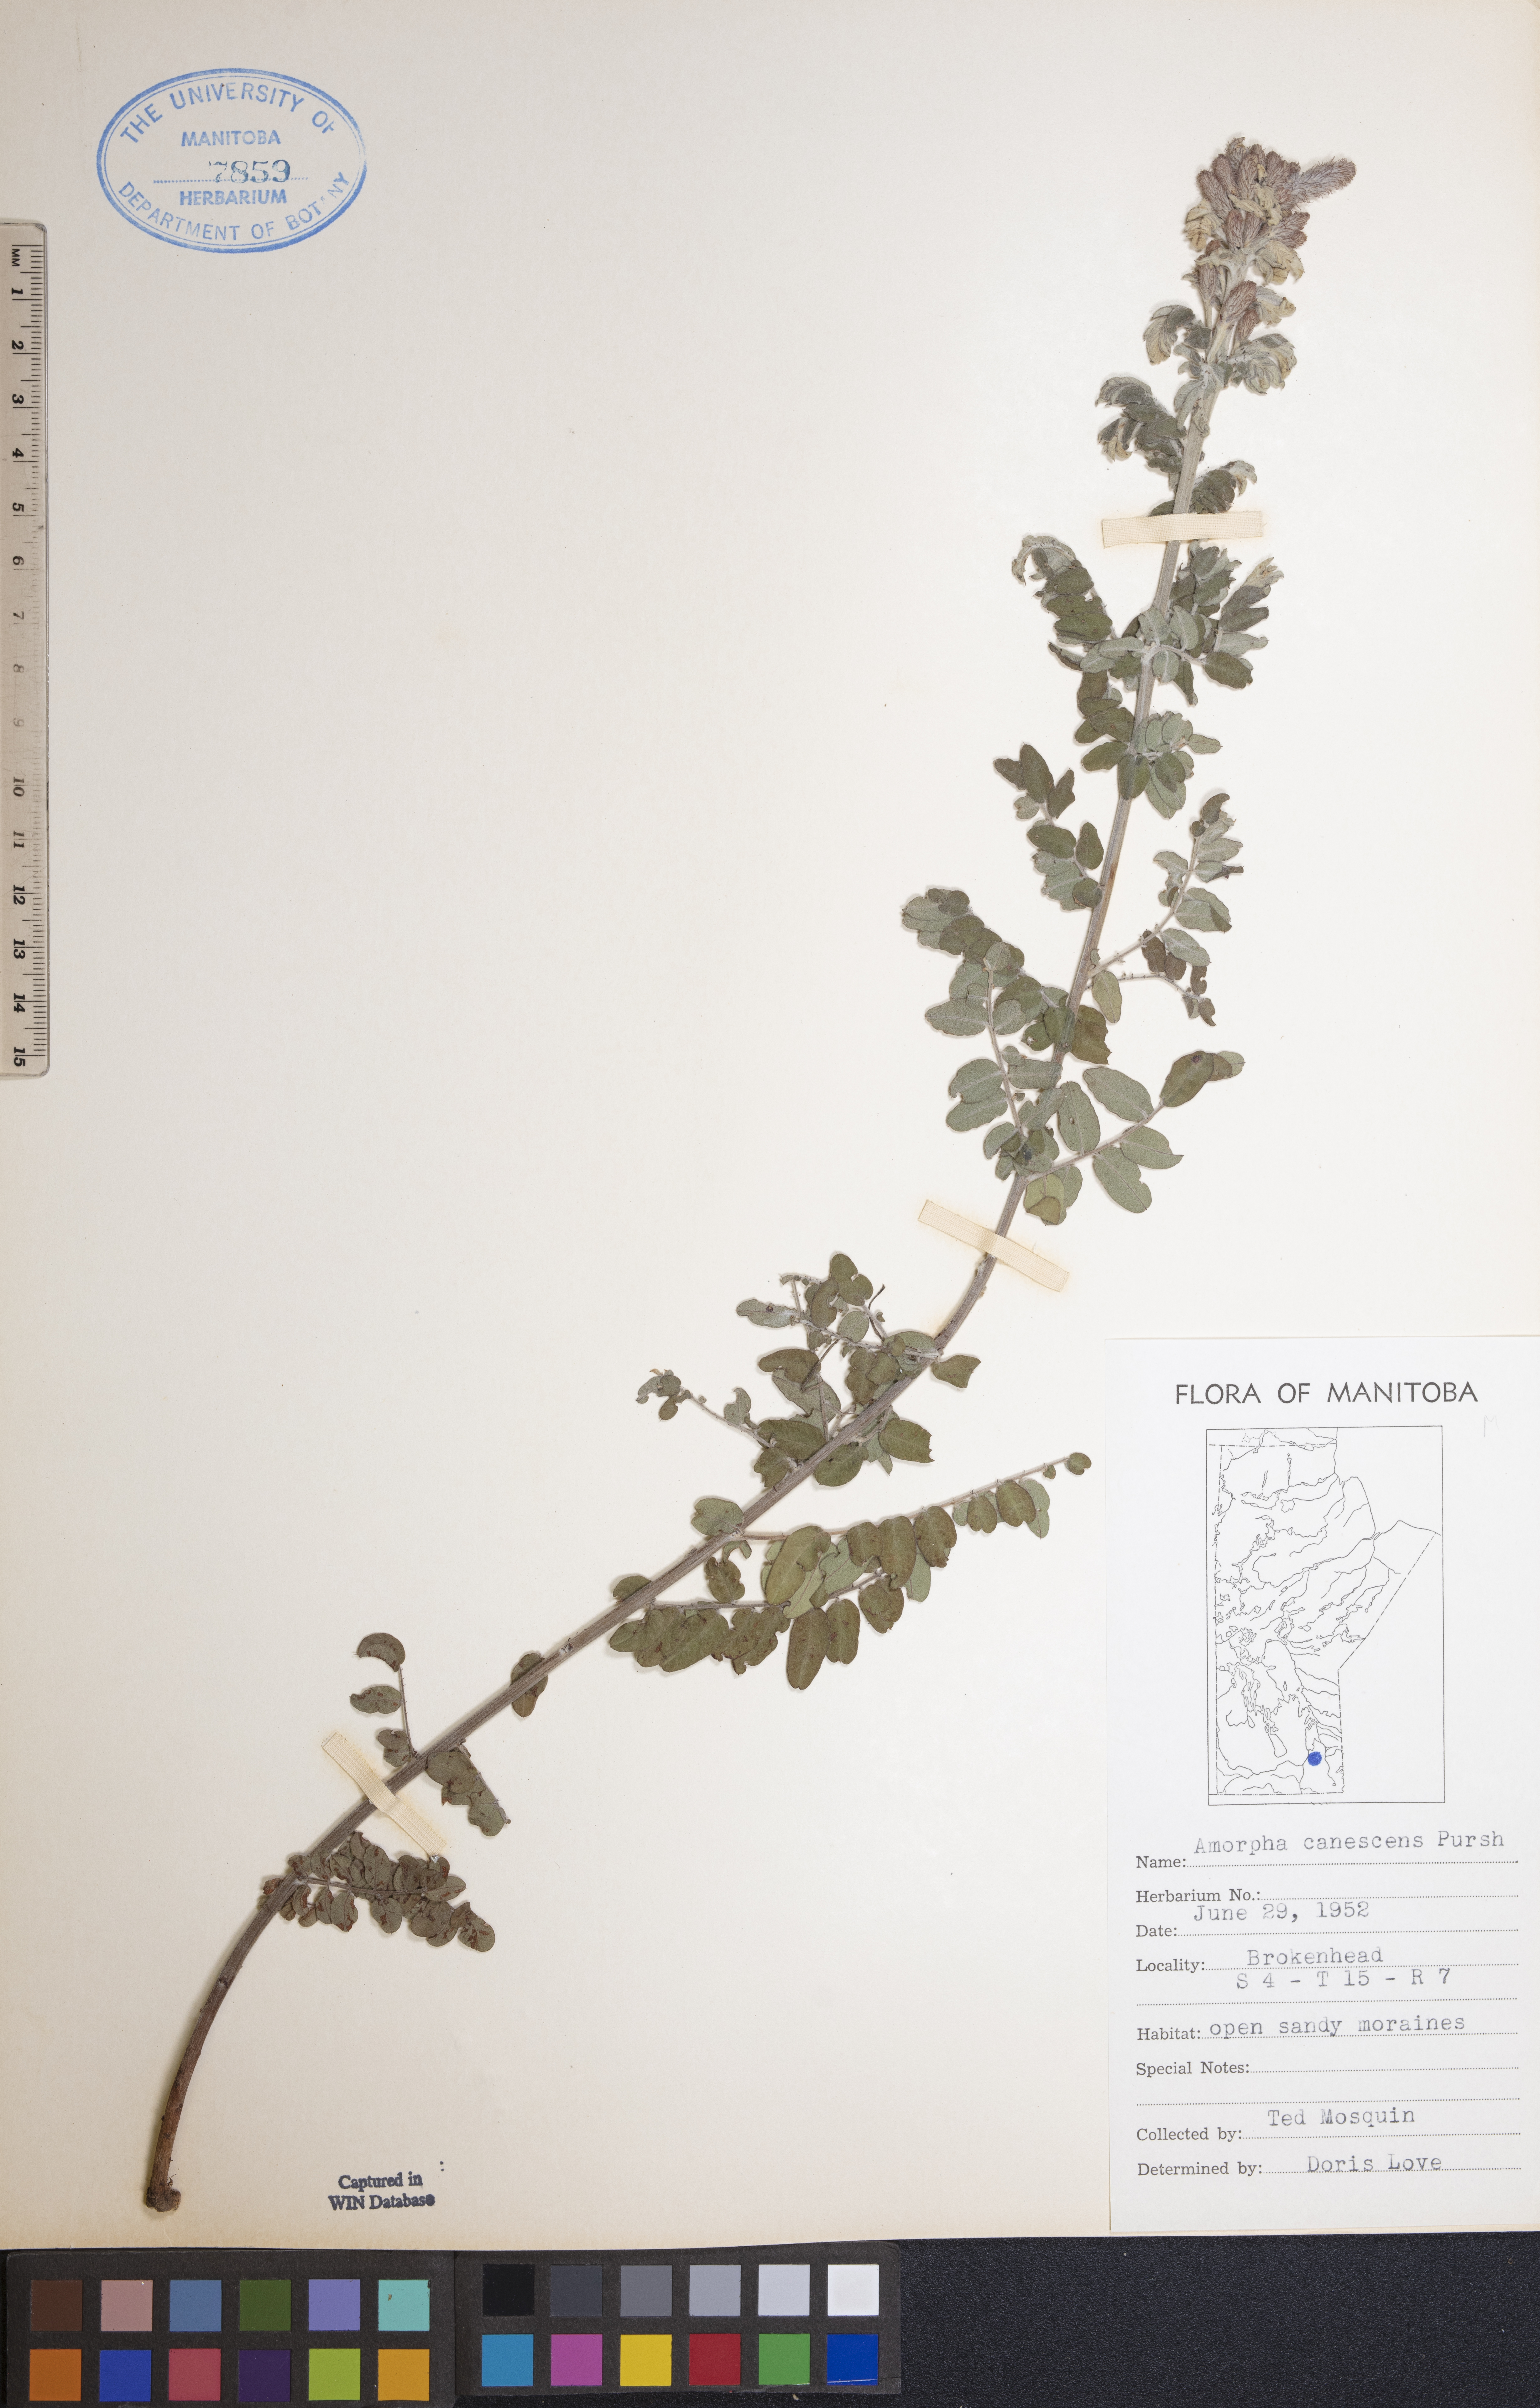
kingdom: Plantae
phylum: Tracheophyta
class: Magnoliopsida
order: Fabales
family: Fabaceae
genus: Amorpha
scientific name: Amorpha canescens
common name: Leadplant
